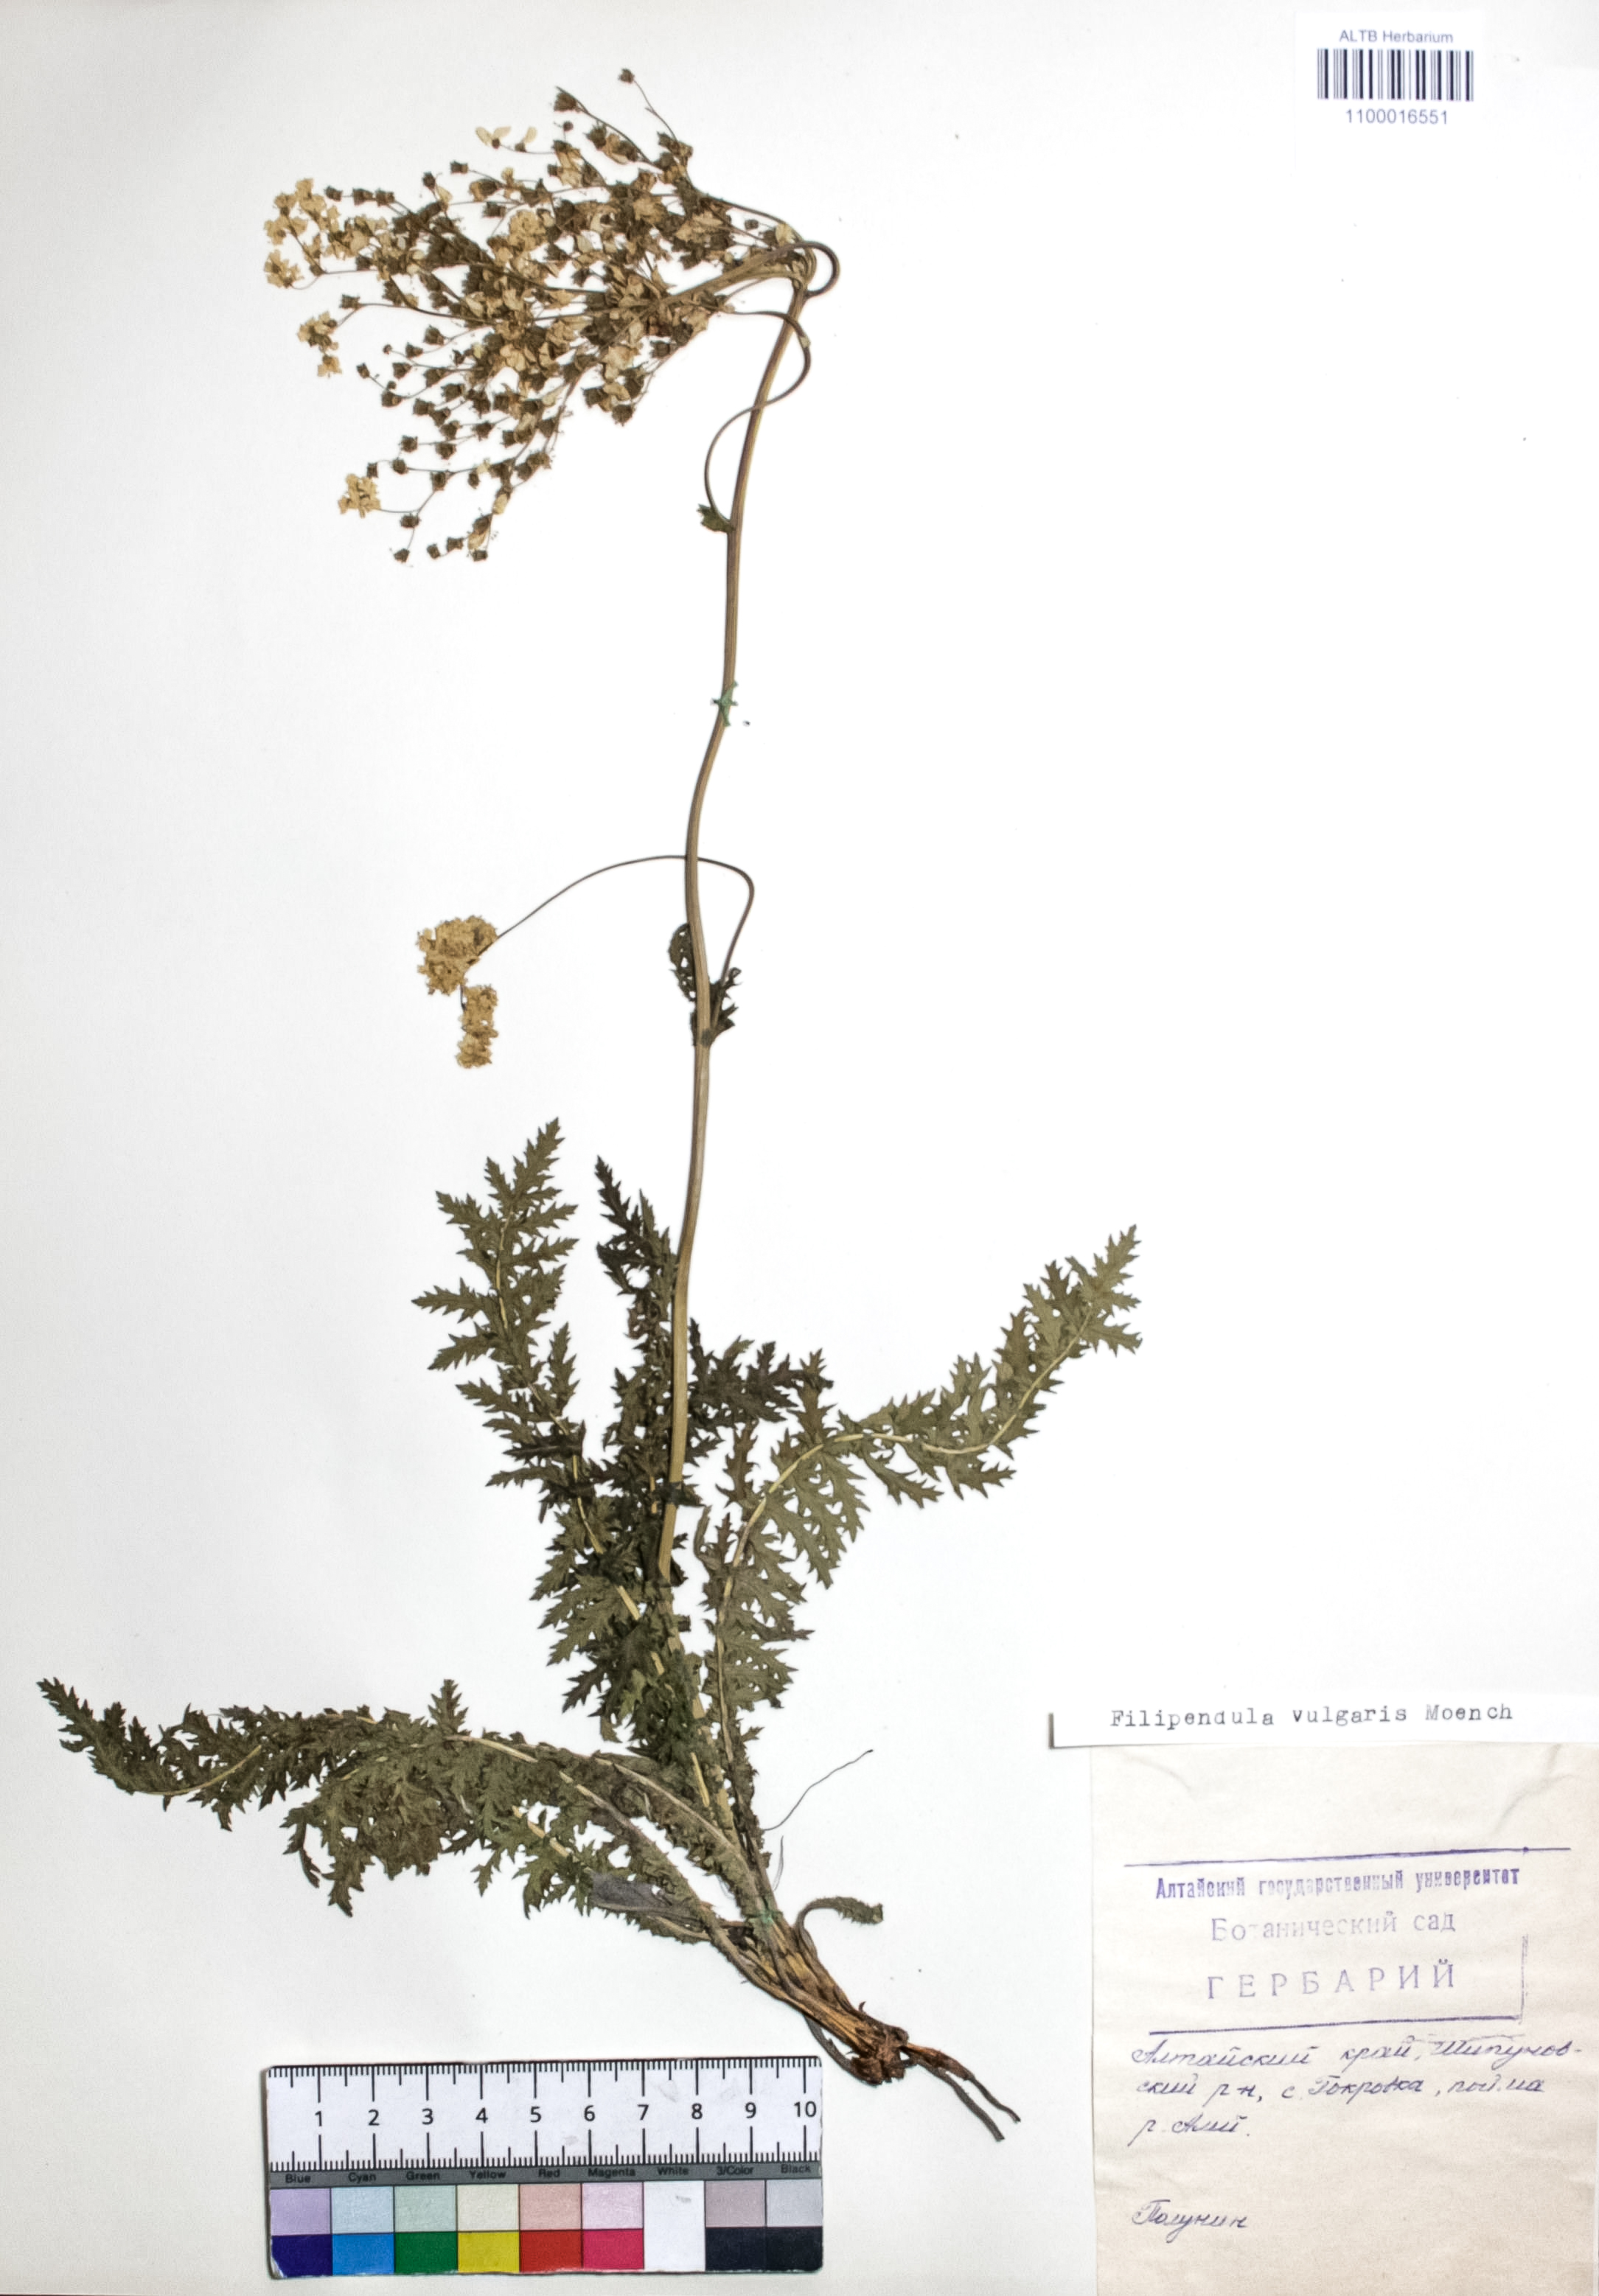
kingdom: Plantae
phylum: Tracheophyta
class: Magnoliopsida
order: Rosales
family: Rosaceae
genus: Filipendula
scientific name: Filipendula vulgaris
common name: Dropwort
